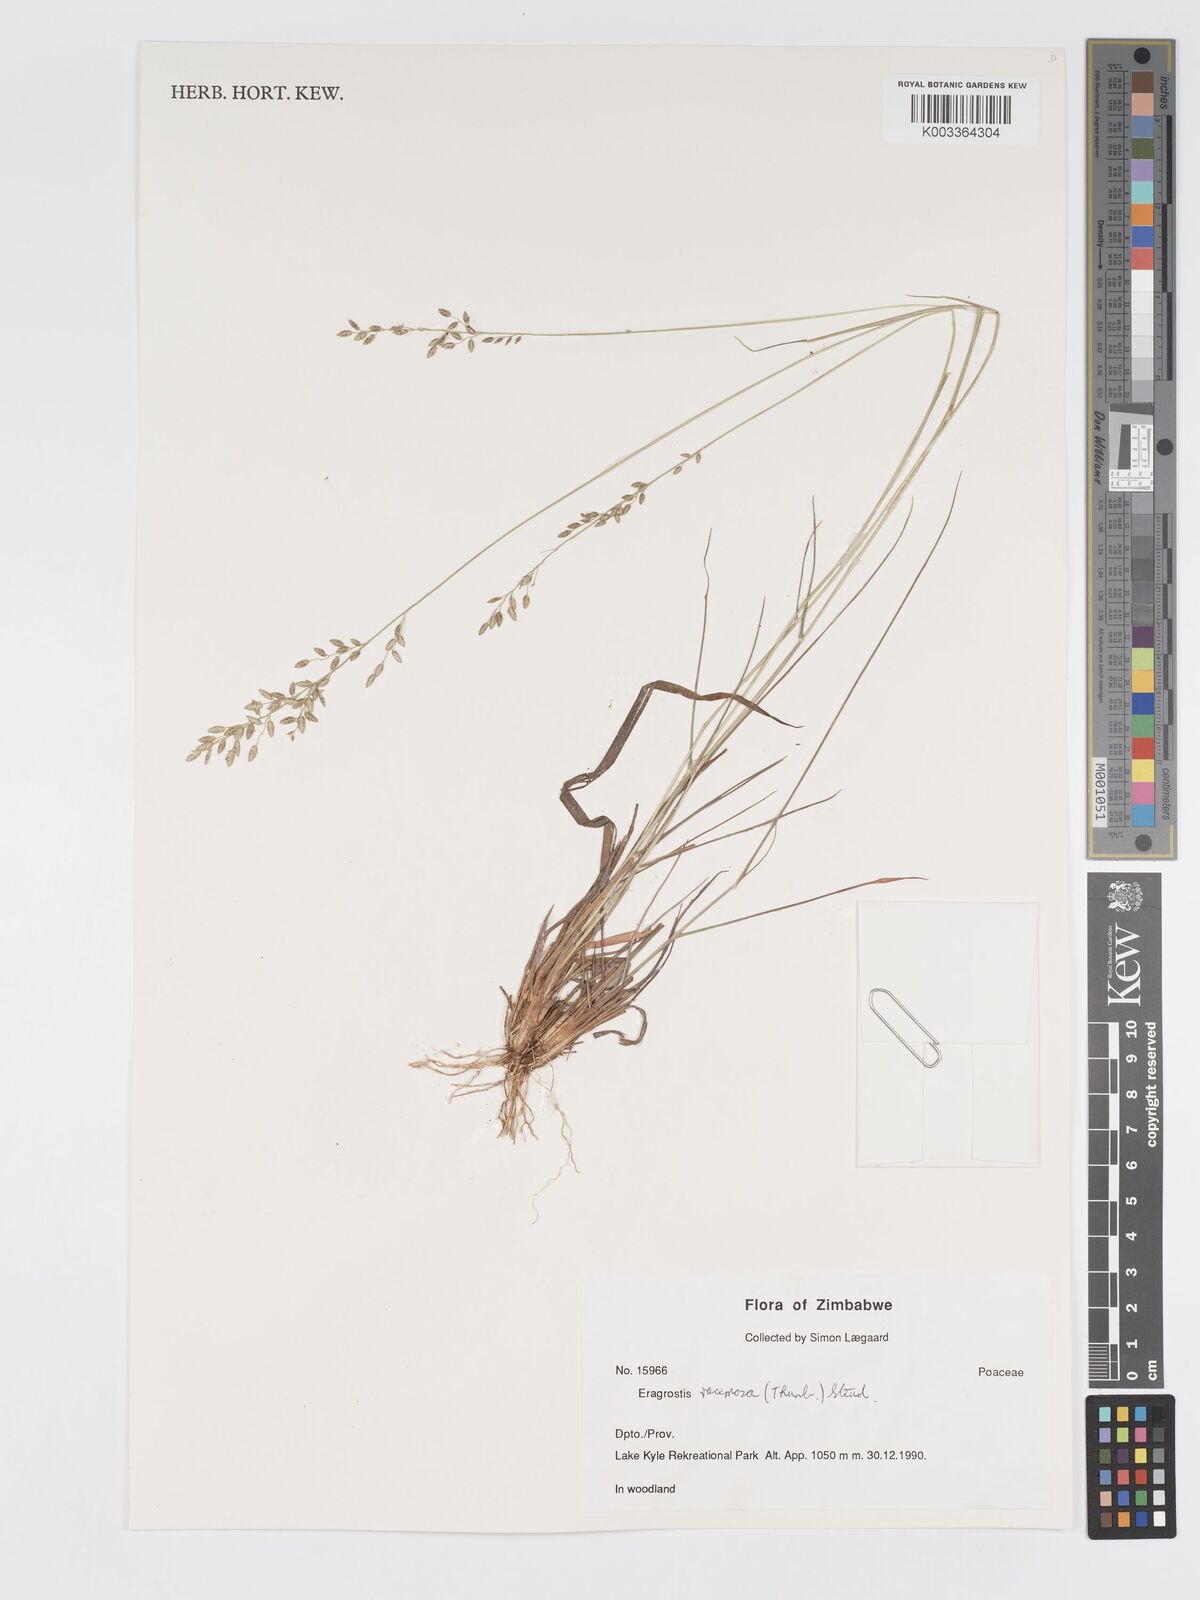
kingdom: Plantae
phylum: Tracheophyta
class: Liliopsida
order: Poales
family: Poaceae
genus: Eragrostis
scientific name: Eragrostis racemosa
